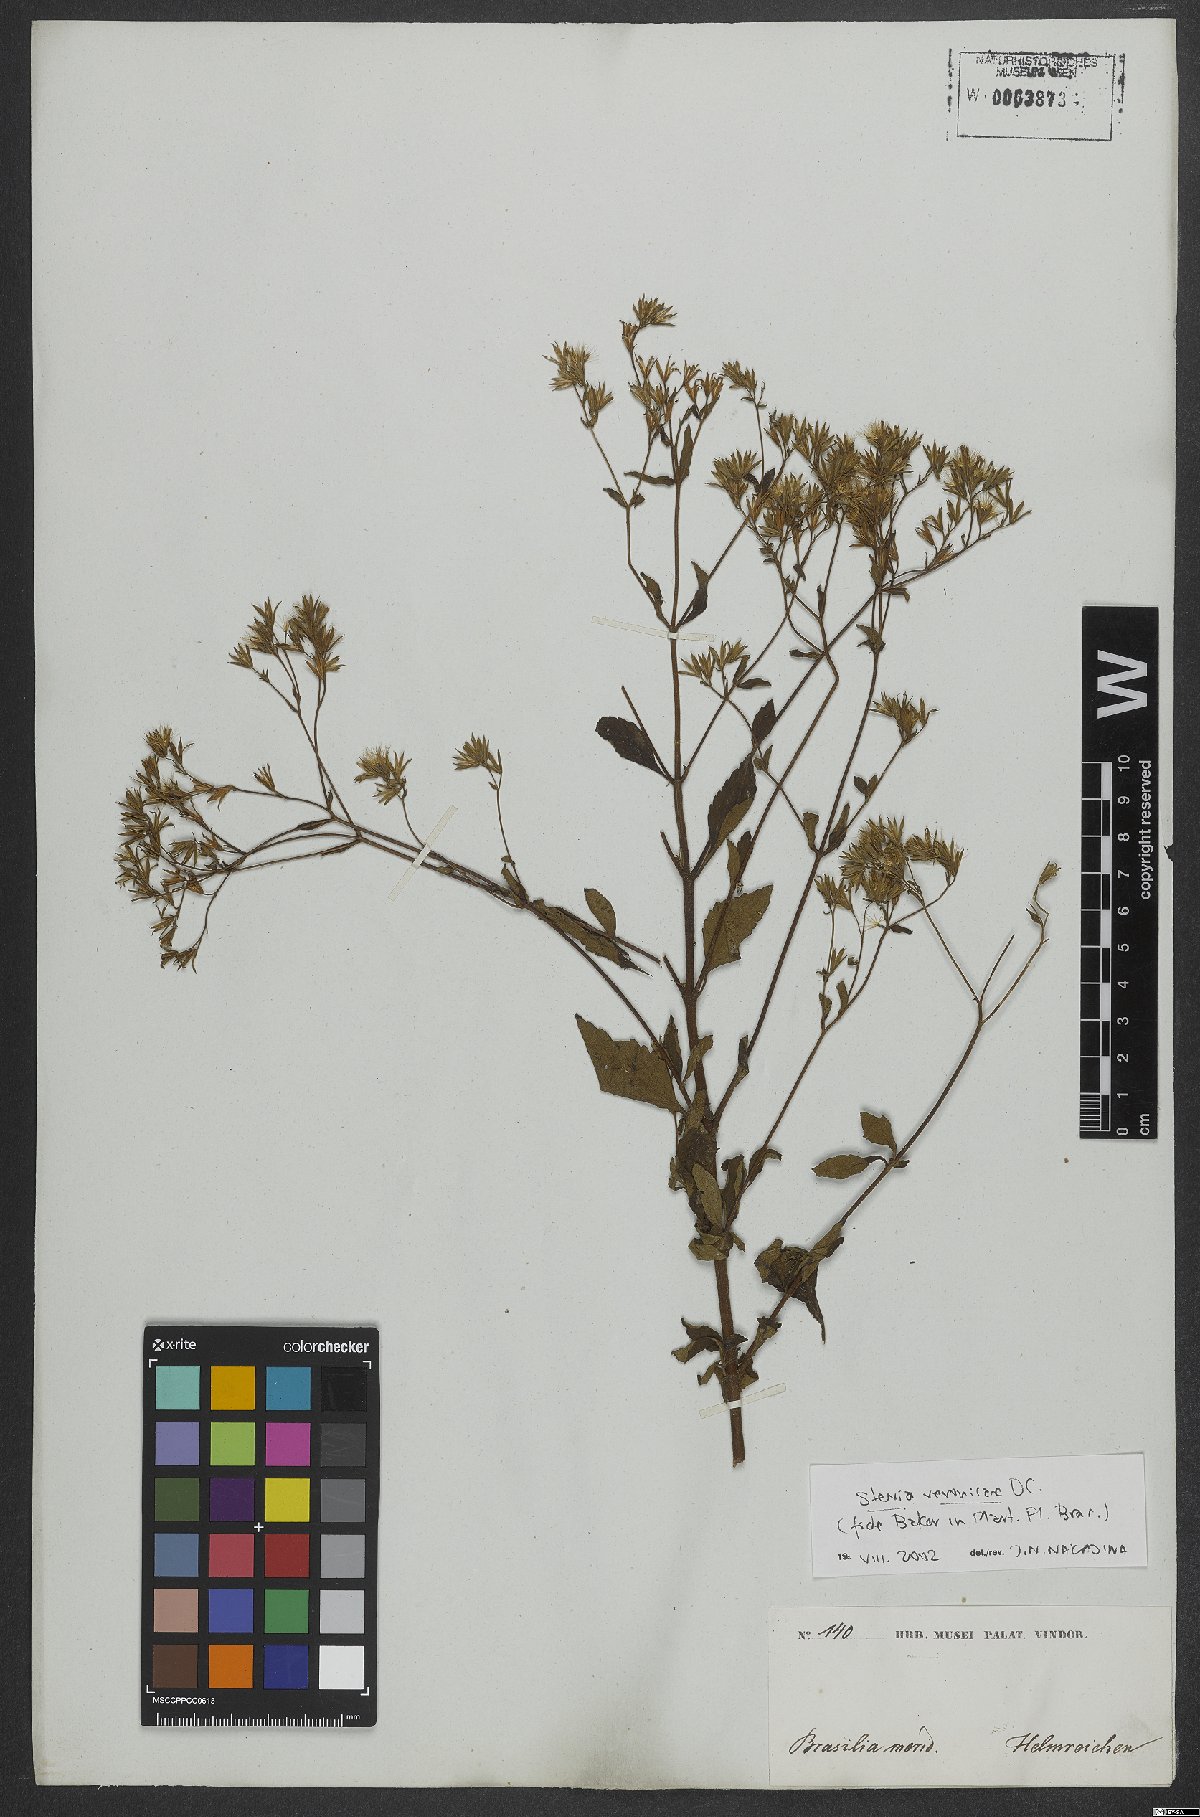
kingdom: Plantae
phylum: Tracheophyta
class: Magnoliopsida
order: Asterales
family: Asteraceae
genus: Stevia
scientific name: Stevia veronicae
